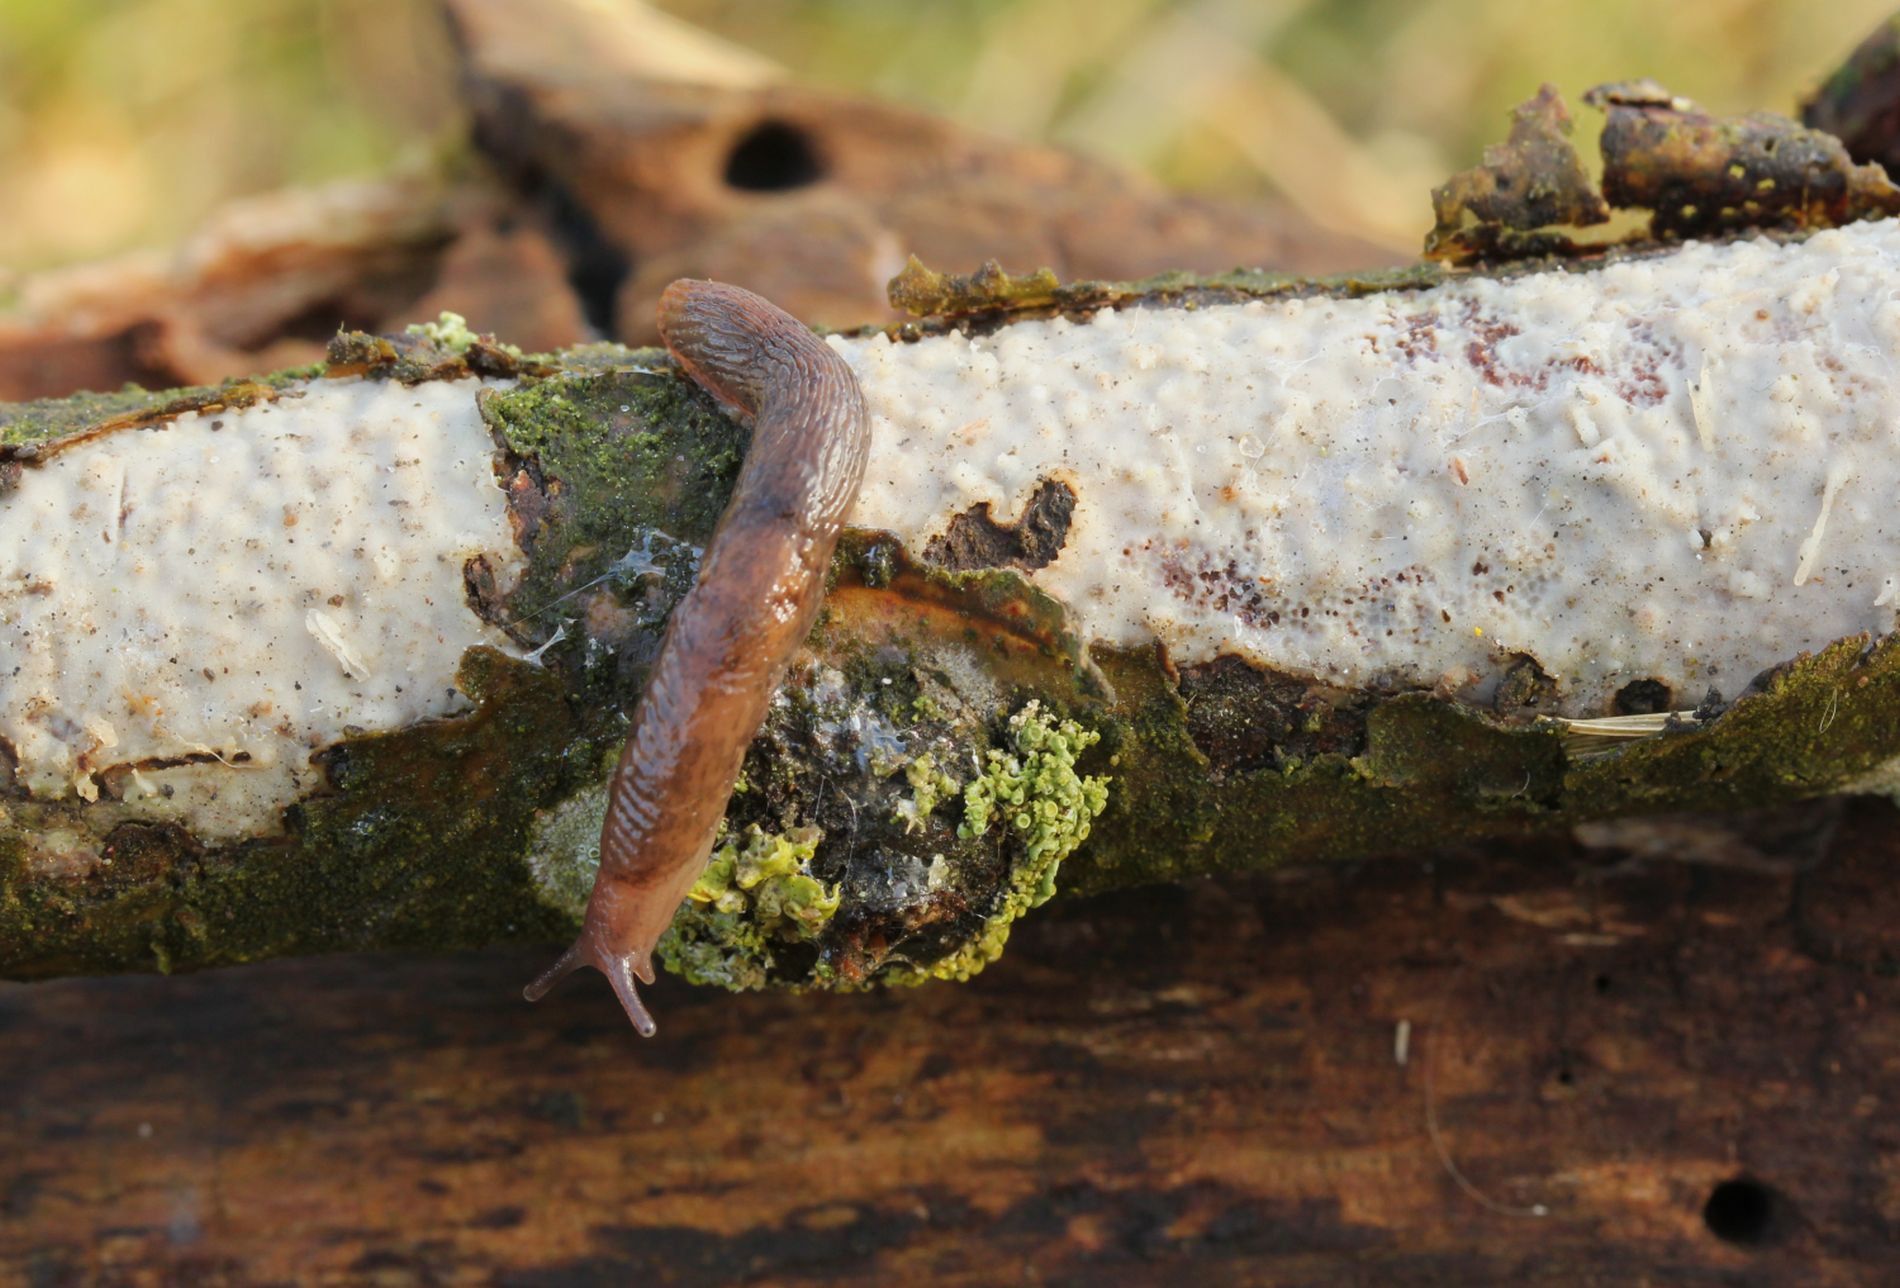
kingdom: Fungi
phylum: Basidiomycota
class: Agaricomycetes
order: Corticiales
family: Vuilleminiaceae
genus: Vuilleminia
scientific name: Vuilleminia comedens
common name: almindelig barksprænger
